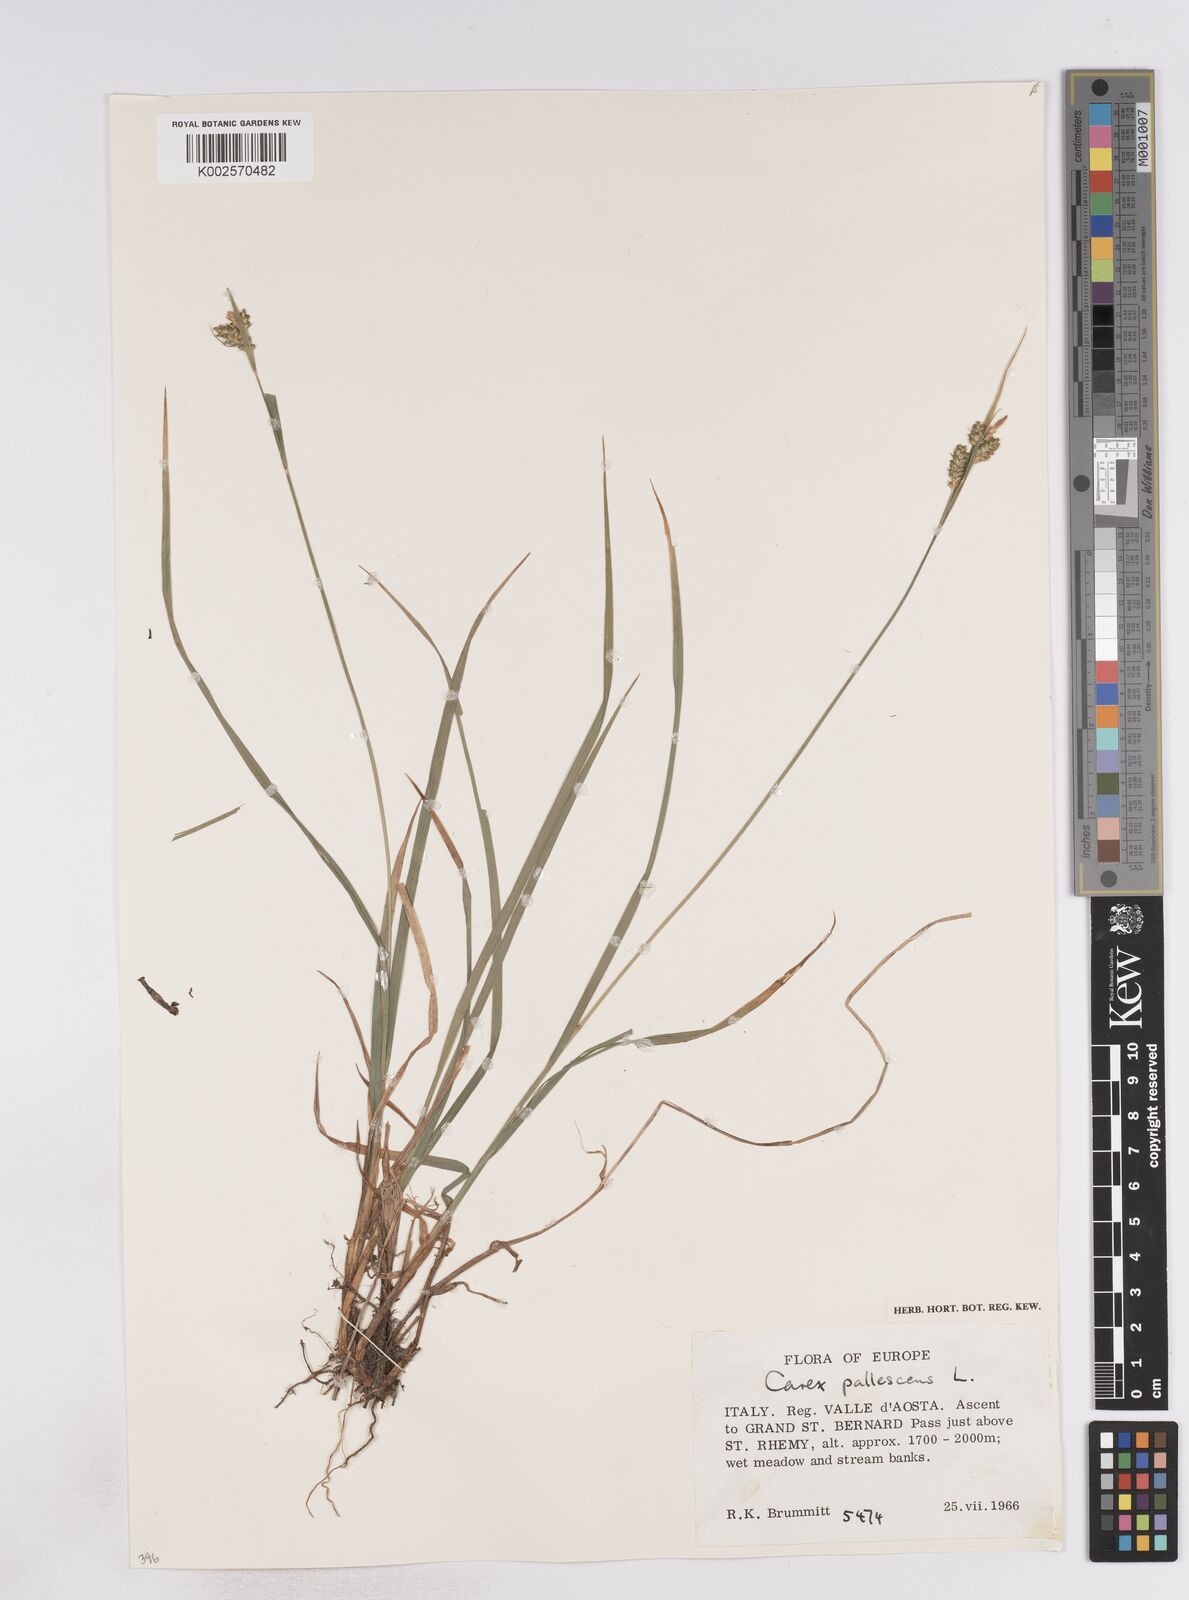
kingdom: Plantae
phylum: Tracheophyta
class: Liliopsida
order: Poales
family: Cyperaceae
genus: Carex
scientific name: Carex pallescens
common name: Pale sedge
